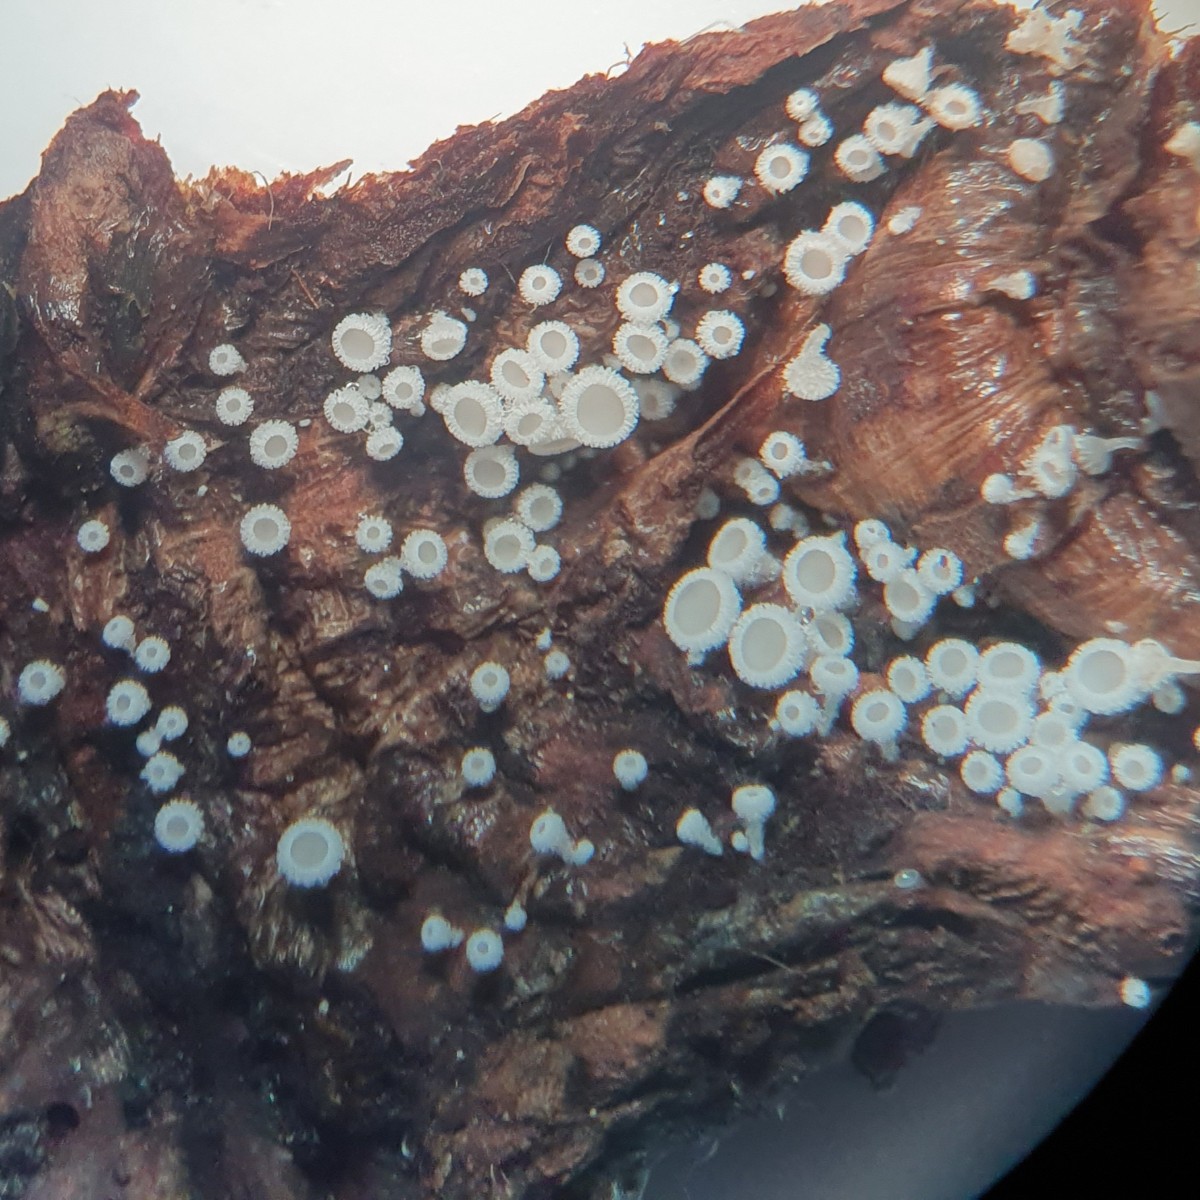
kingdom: Fungi
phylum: Ascomycota
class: Leotiomycetes
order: Helotiales
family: Lachnaceae
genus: Lachnum
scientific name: Lachnum virgineum
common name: jomfru-frynseskive
